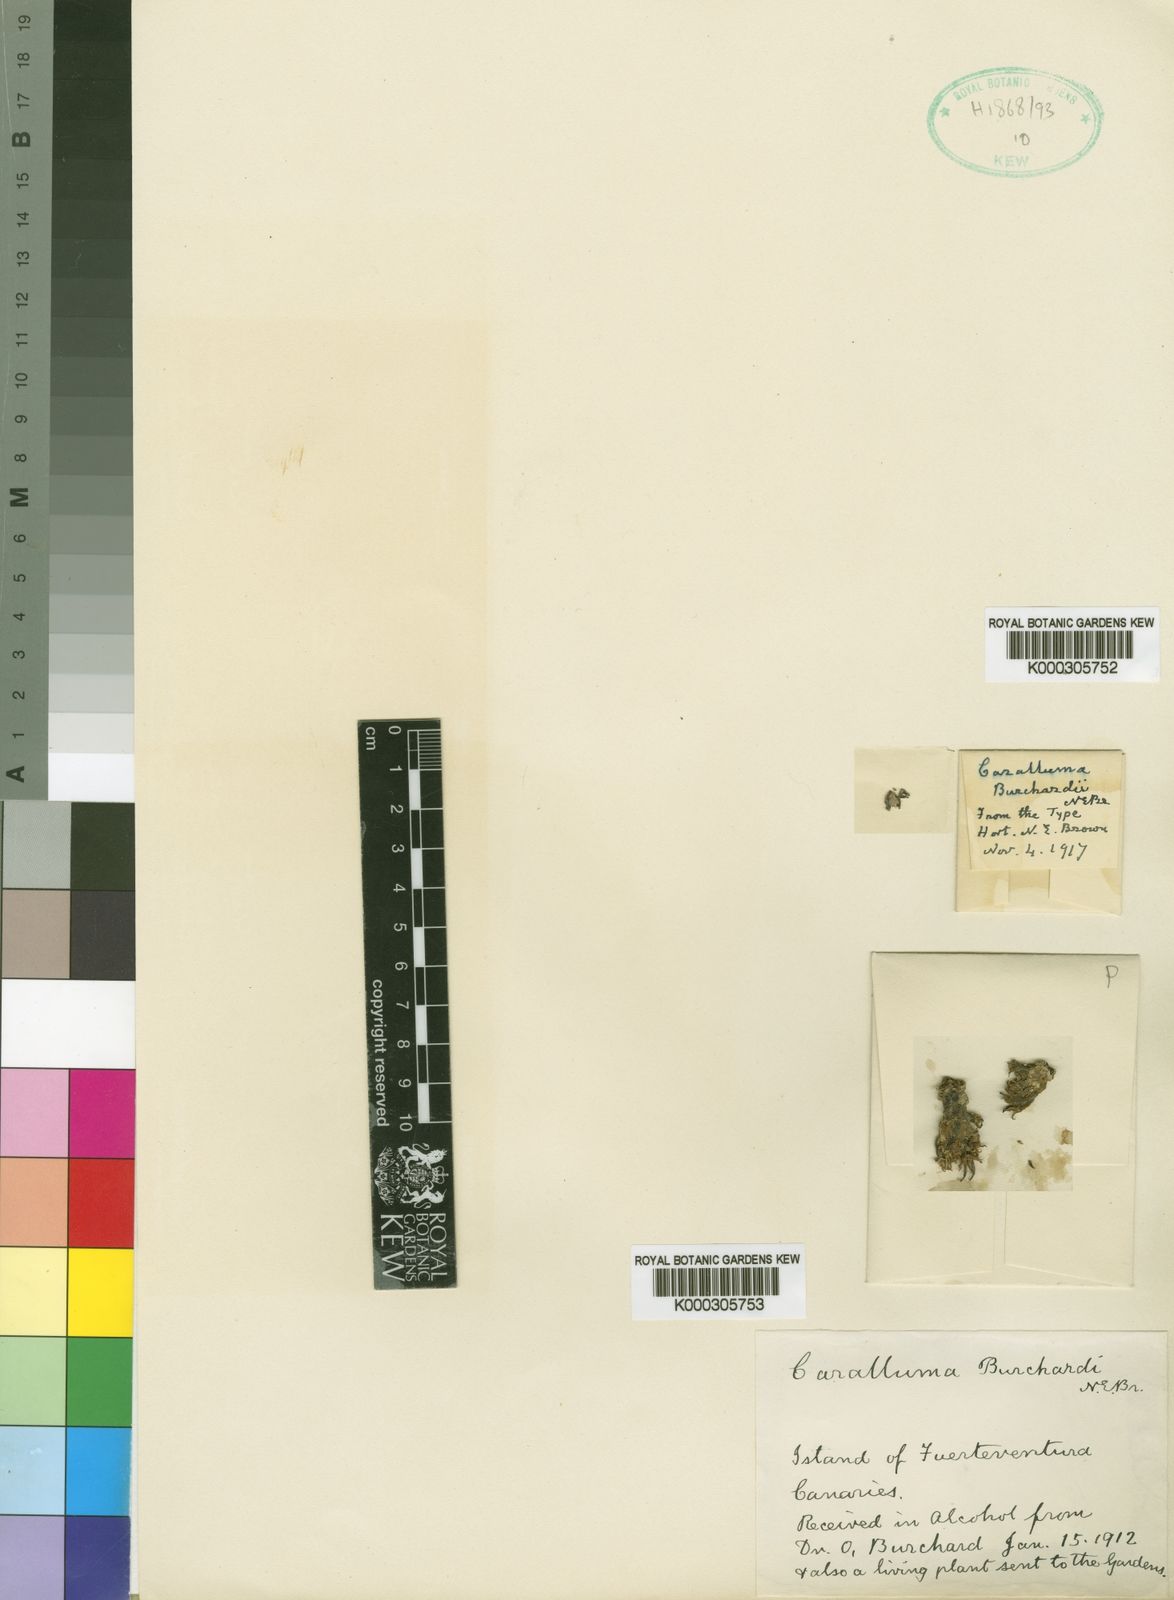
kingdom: Plantae
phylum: Tracheophyta
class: Magnoliopsida
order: Gentianales
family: Apocynaceae
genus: Ceropegia
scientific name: Ceropegia burchardii
